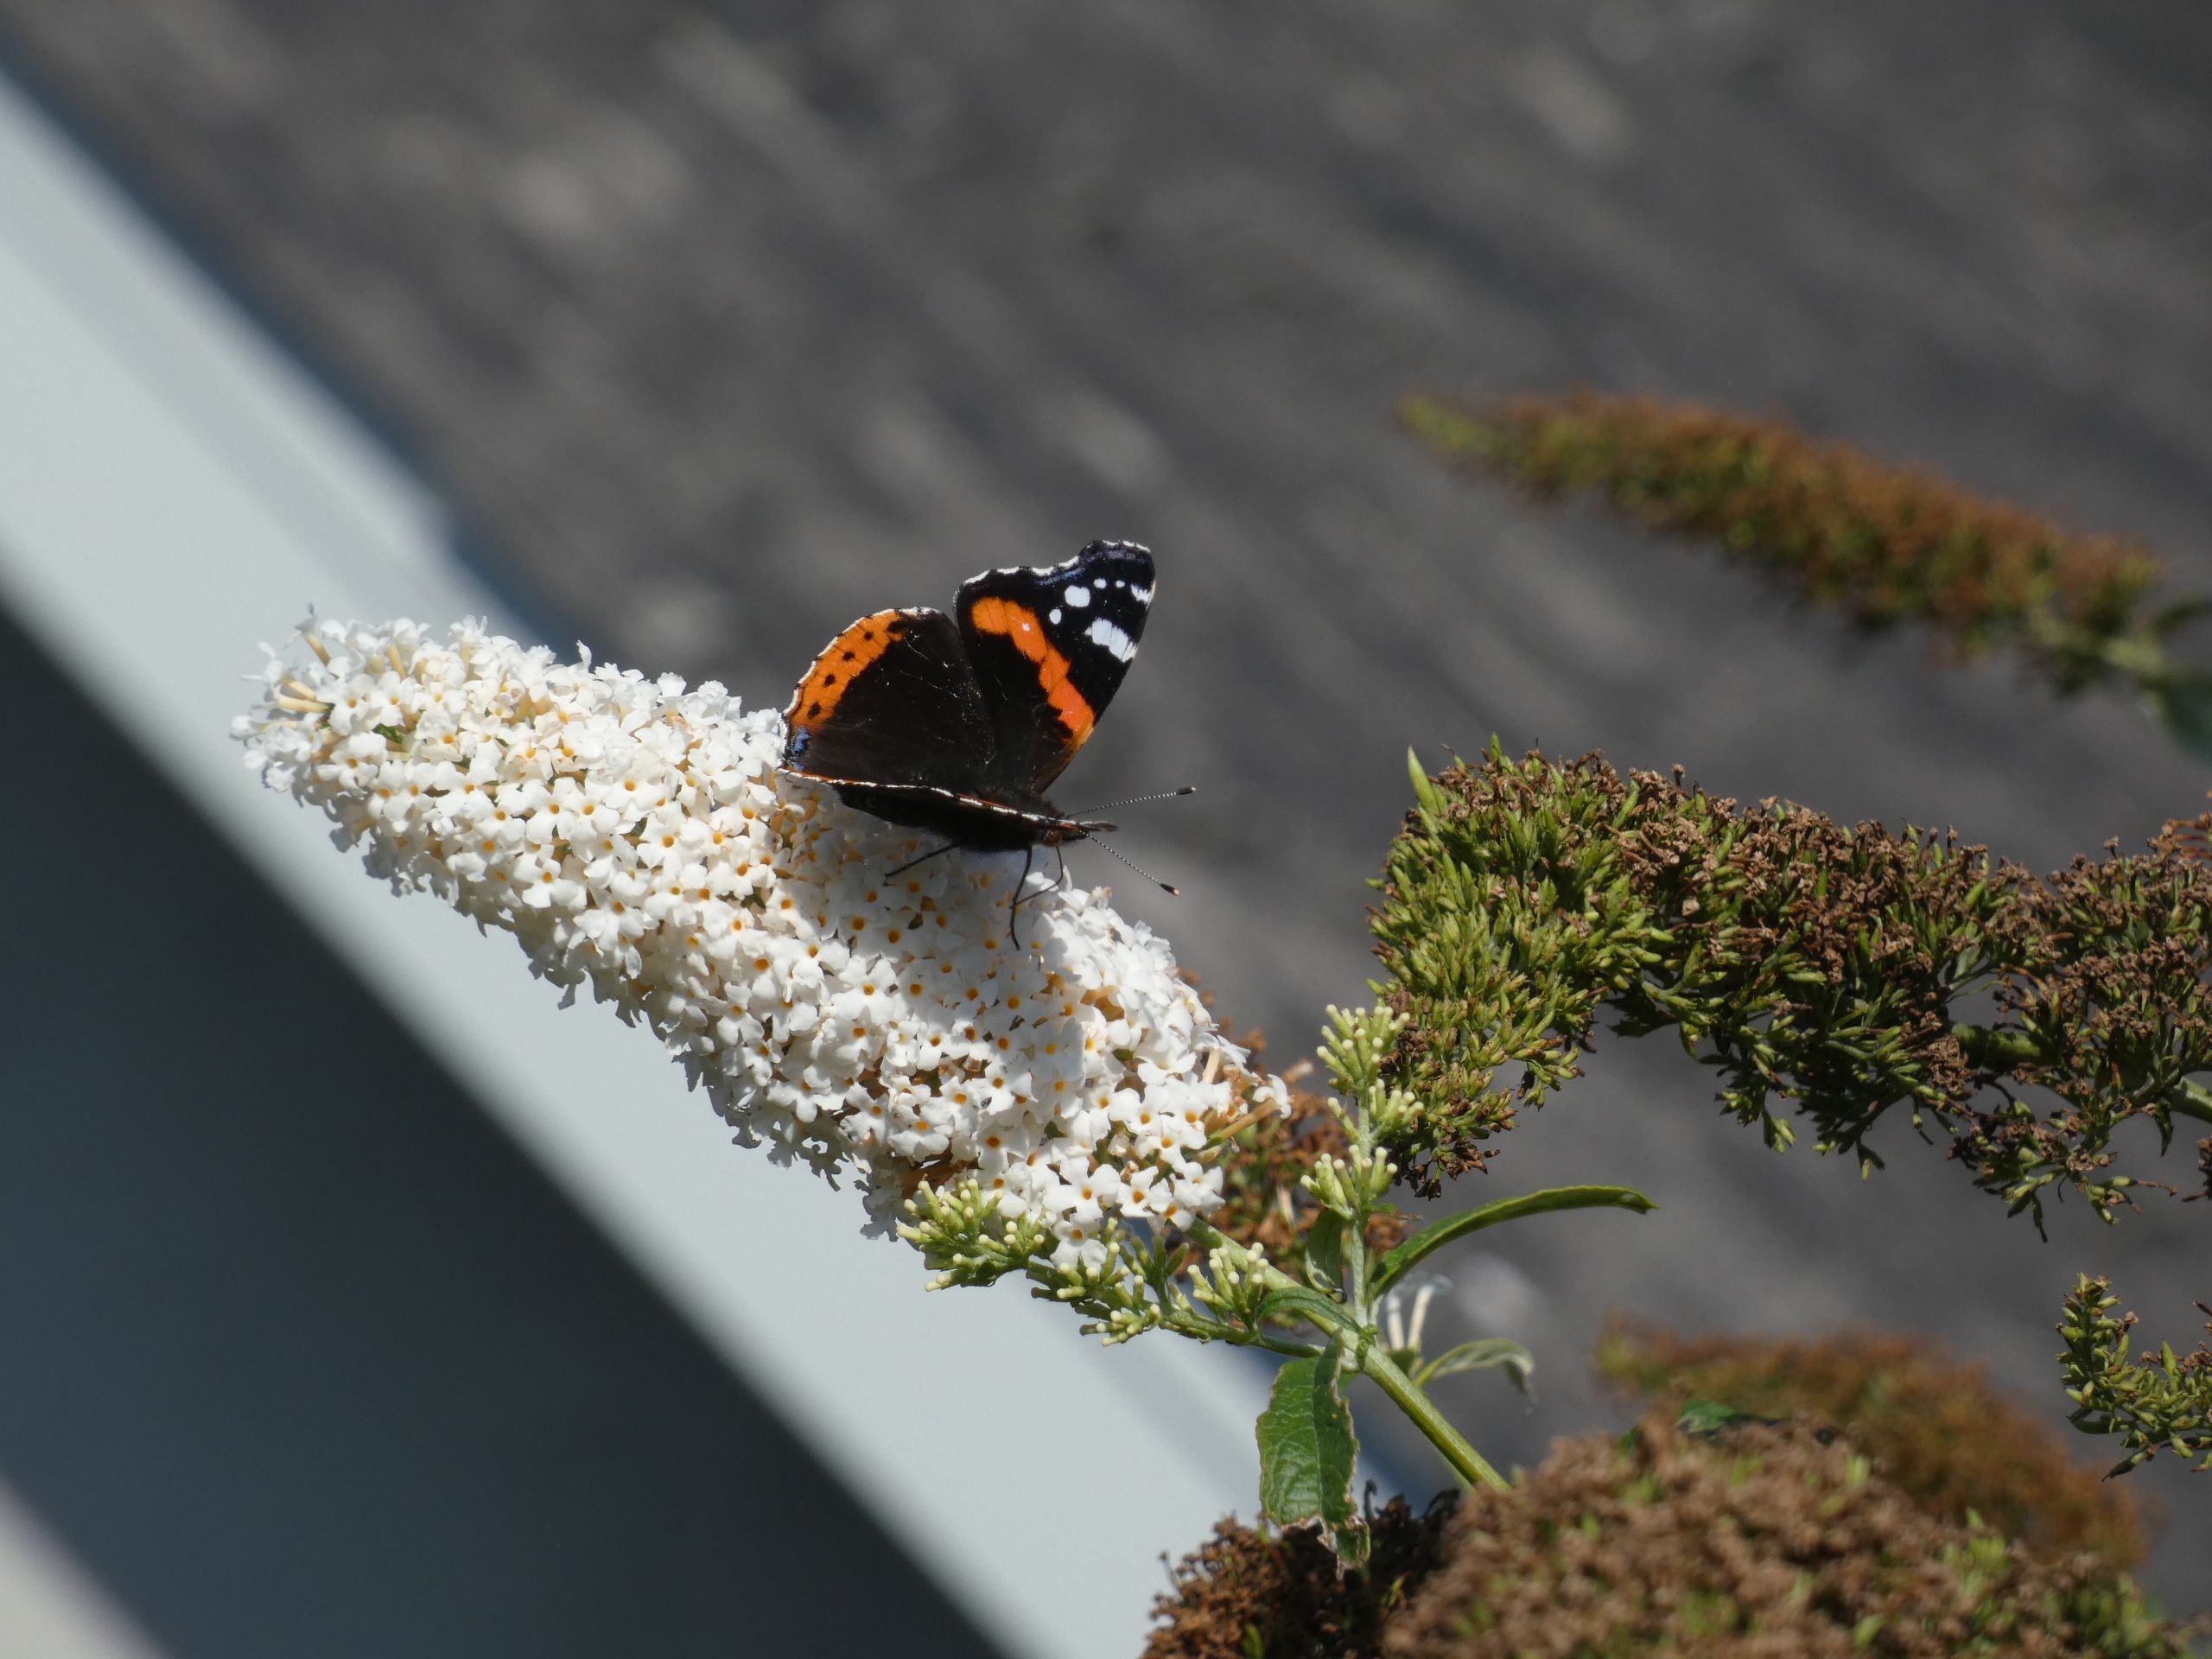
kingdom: Animalia
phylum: Arthropoda
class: Insecta
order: Lepidoptera
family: Nymphalidae
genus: Vanessa
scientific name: Vanessa atalanta
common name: Admiral
